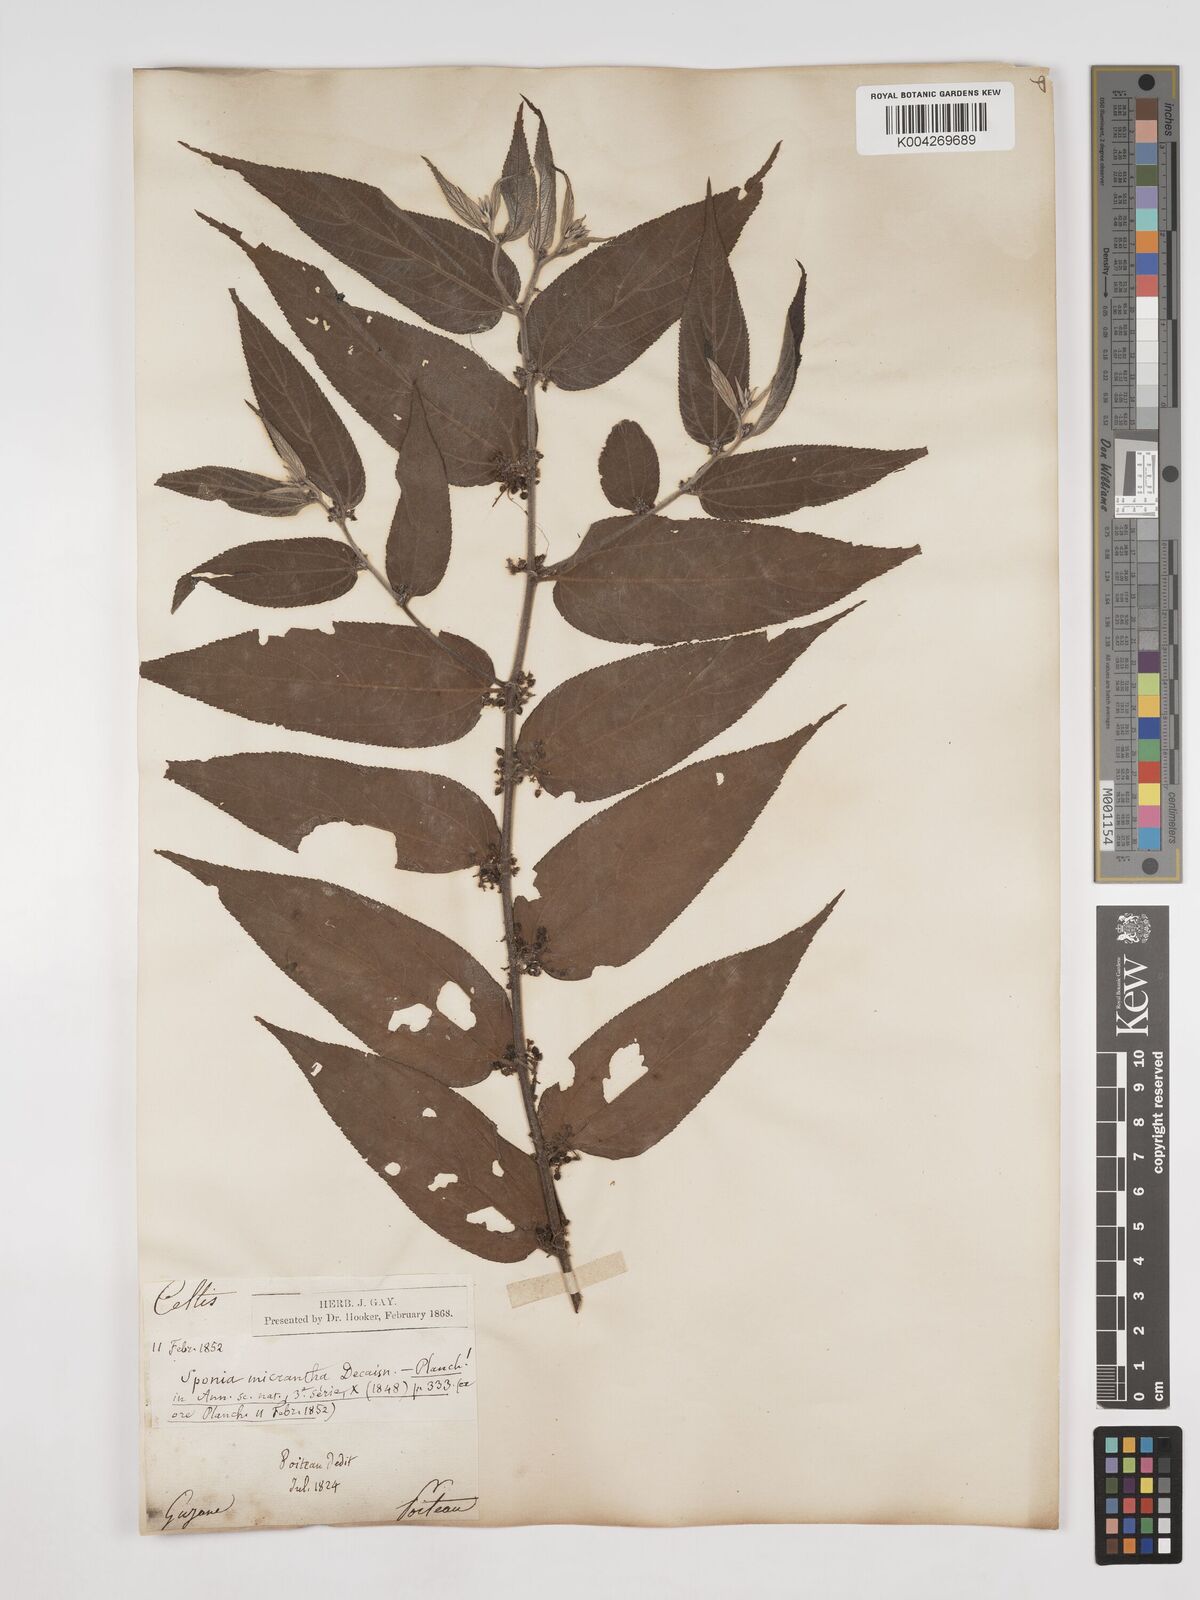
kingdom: Plantae
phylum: Tracheophyta
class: Magnoliopsida
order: Rosales
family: Cannabaceae
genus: Trema
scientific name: Trema micranthum
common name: Jamaican nettletree
